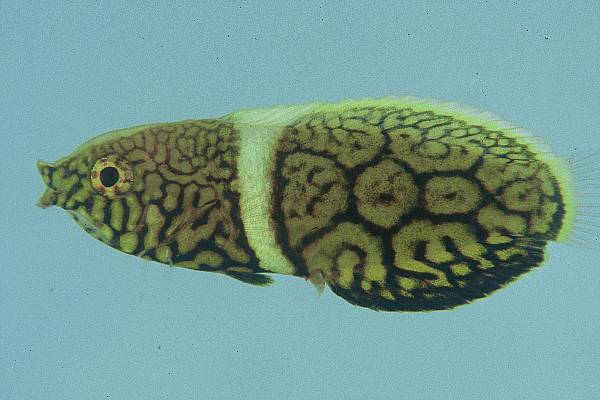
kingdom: Animalia
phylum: Chordata
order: Perciformes
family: Labridae
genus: Anampses
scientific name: Anampses
